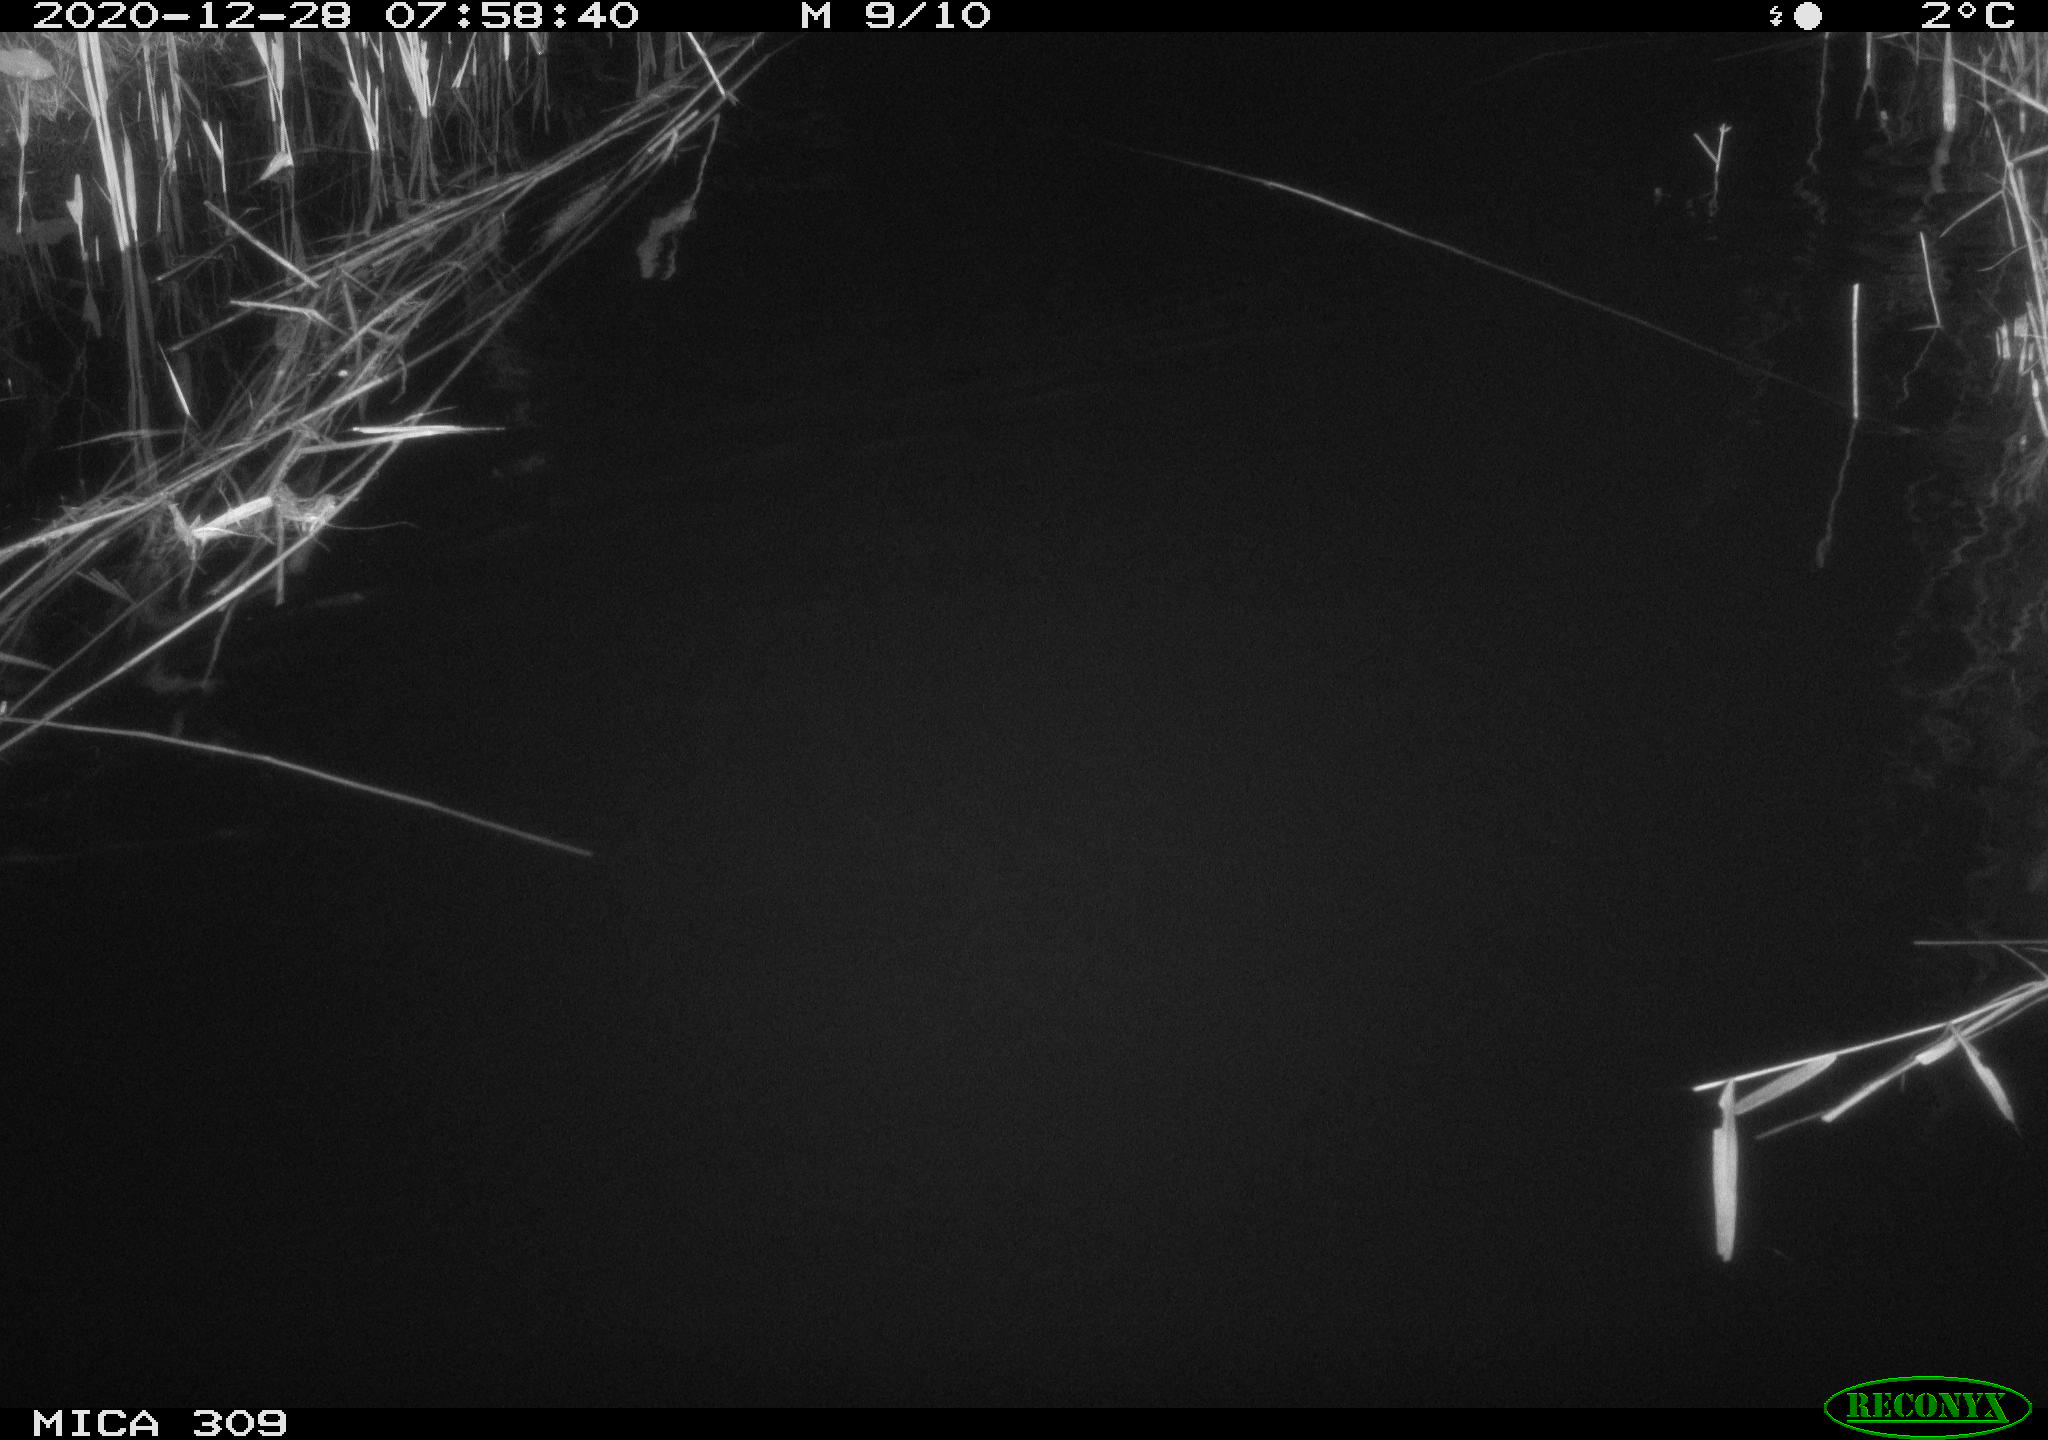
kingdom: Animalia
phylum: Chordata
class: Mammalia
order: Rodentia
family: Muridae
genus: Rattus
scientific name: Rattus norvegicus
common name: Brown rat
